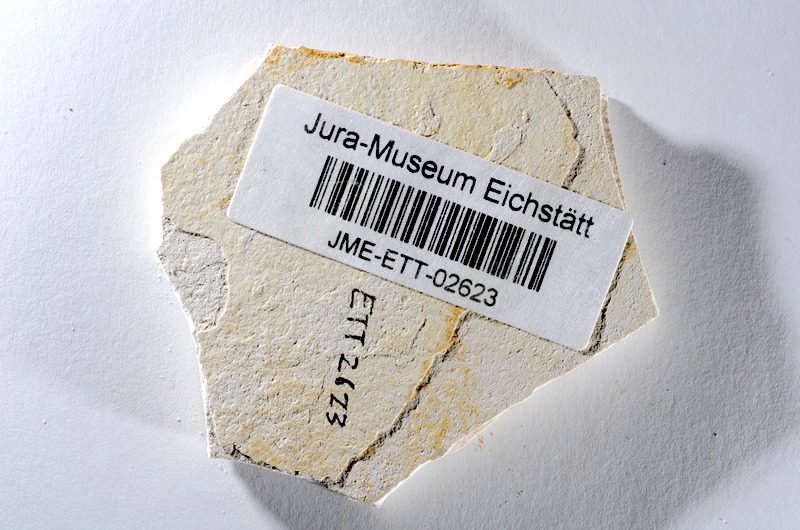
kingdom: Animalia
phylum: Chordata
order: Salmoniformes
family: Orthogonikleithridae
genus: Orthogonikleithrus
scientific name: Orthogonikleithrus hoelli
